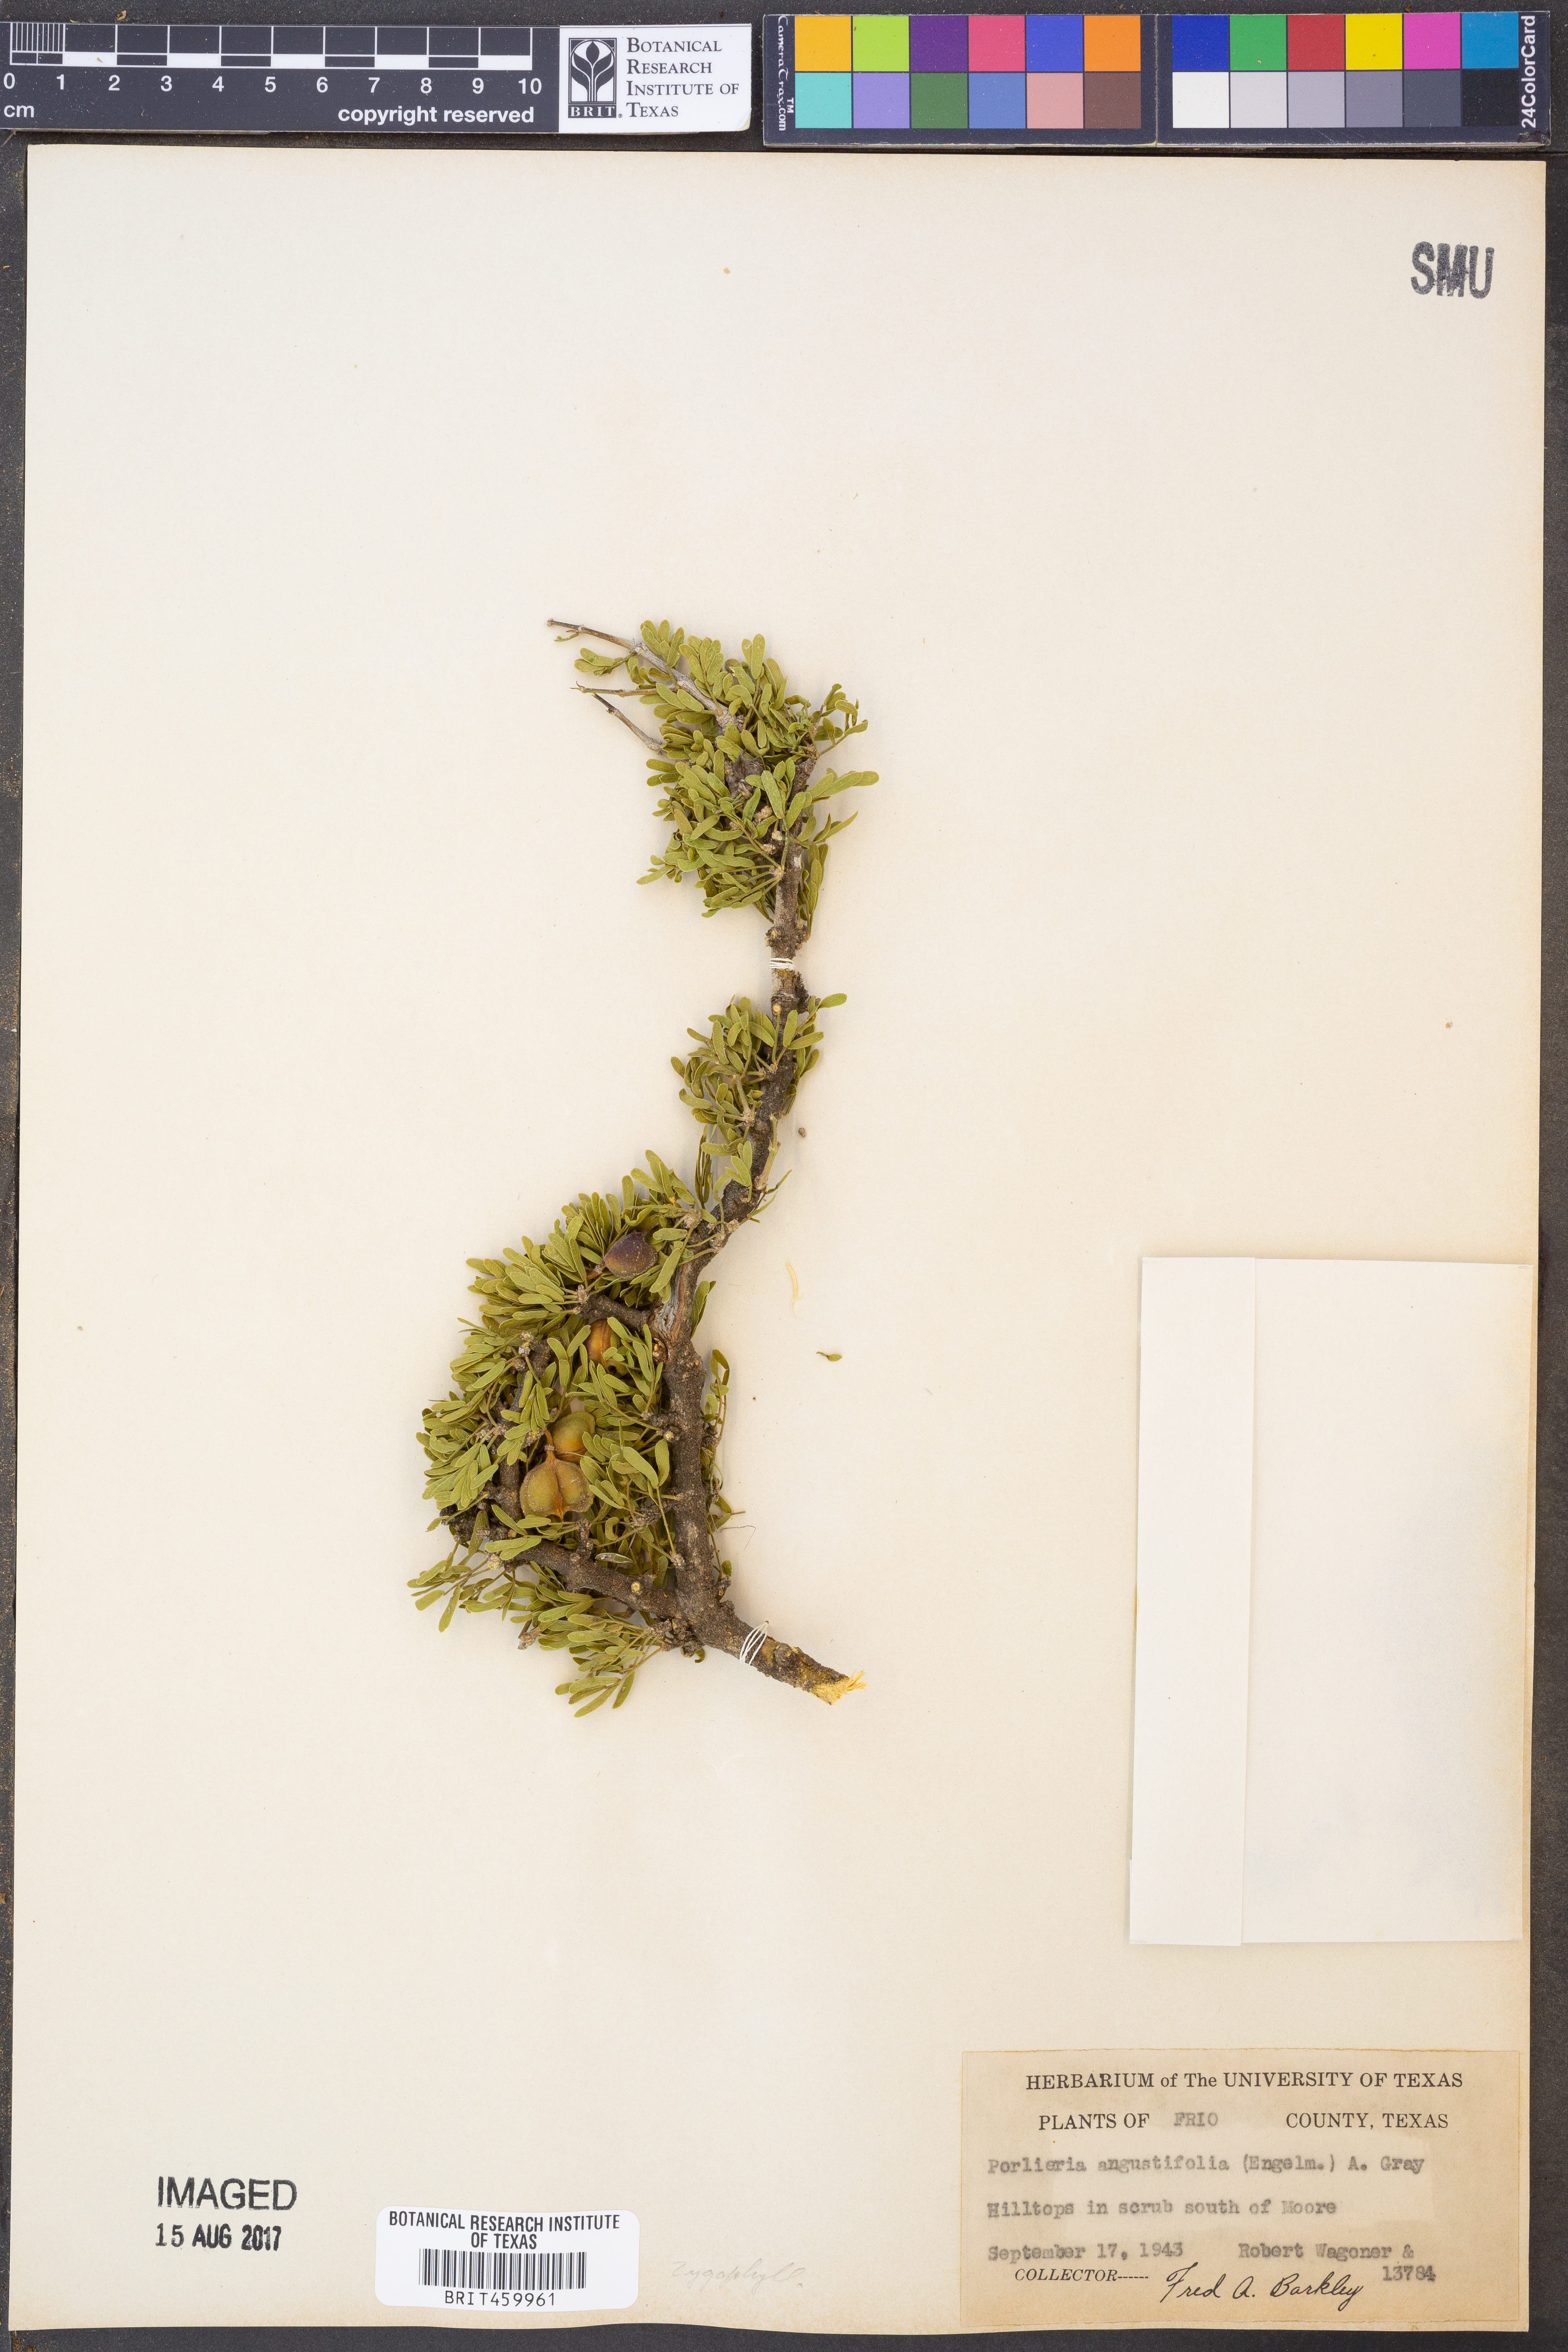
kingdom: Plantae
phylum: Tracheophyta
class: Magnoliopsida
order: Zygophyllales
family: Zygophyllaceae
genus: Porlieria
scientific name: Porlieria angustifolia
